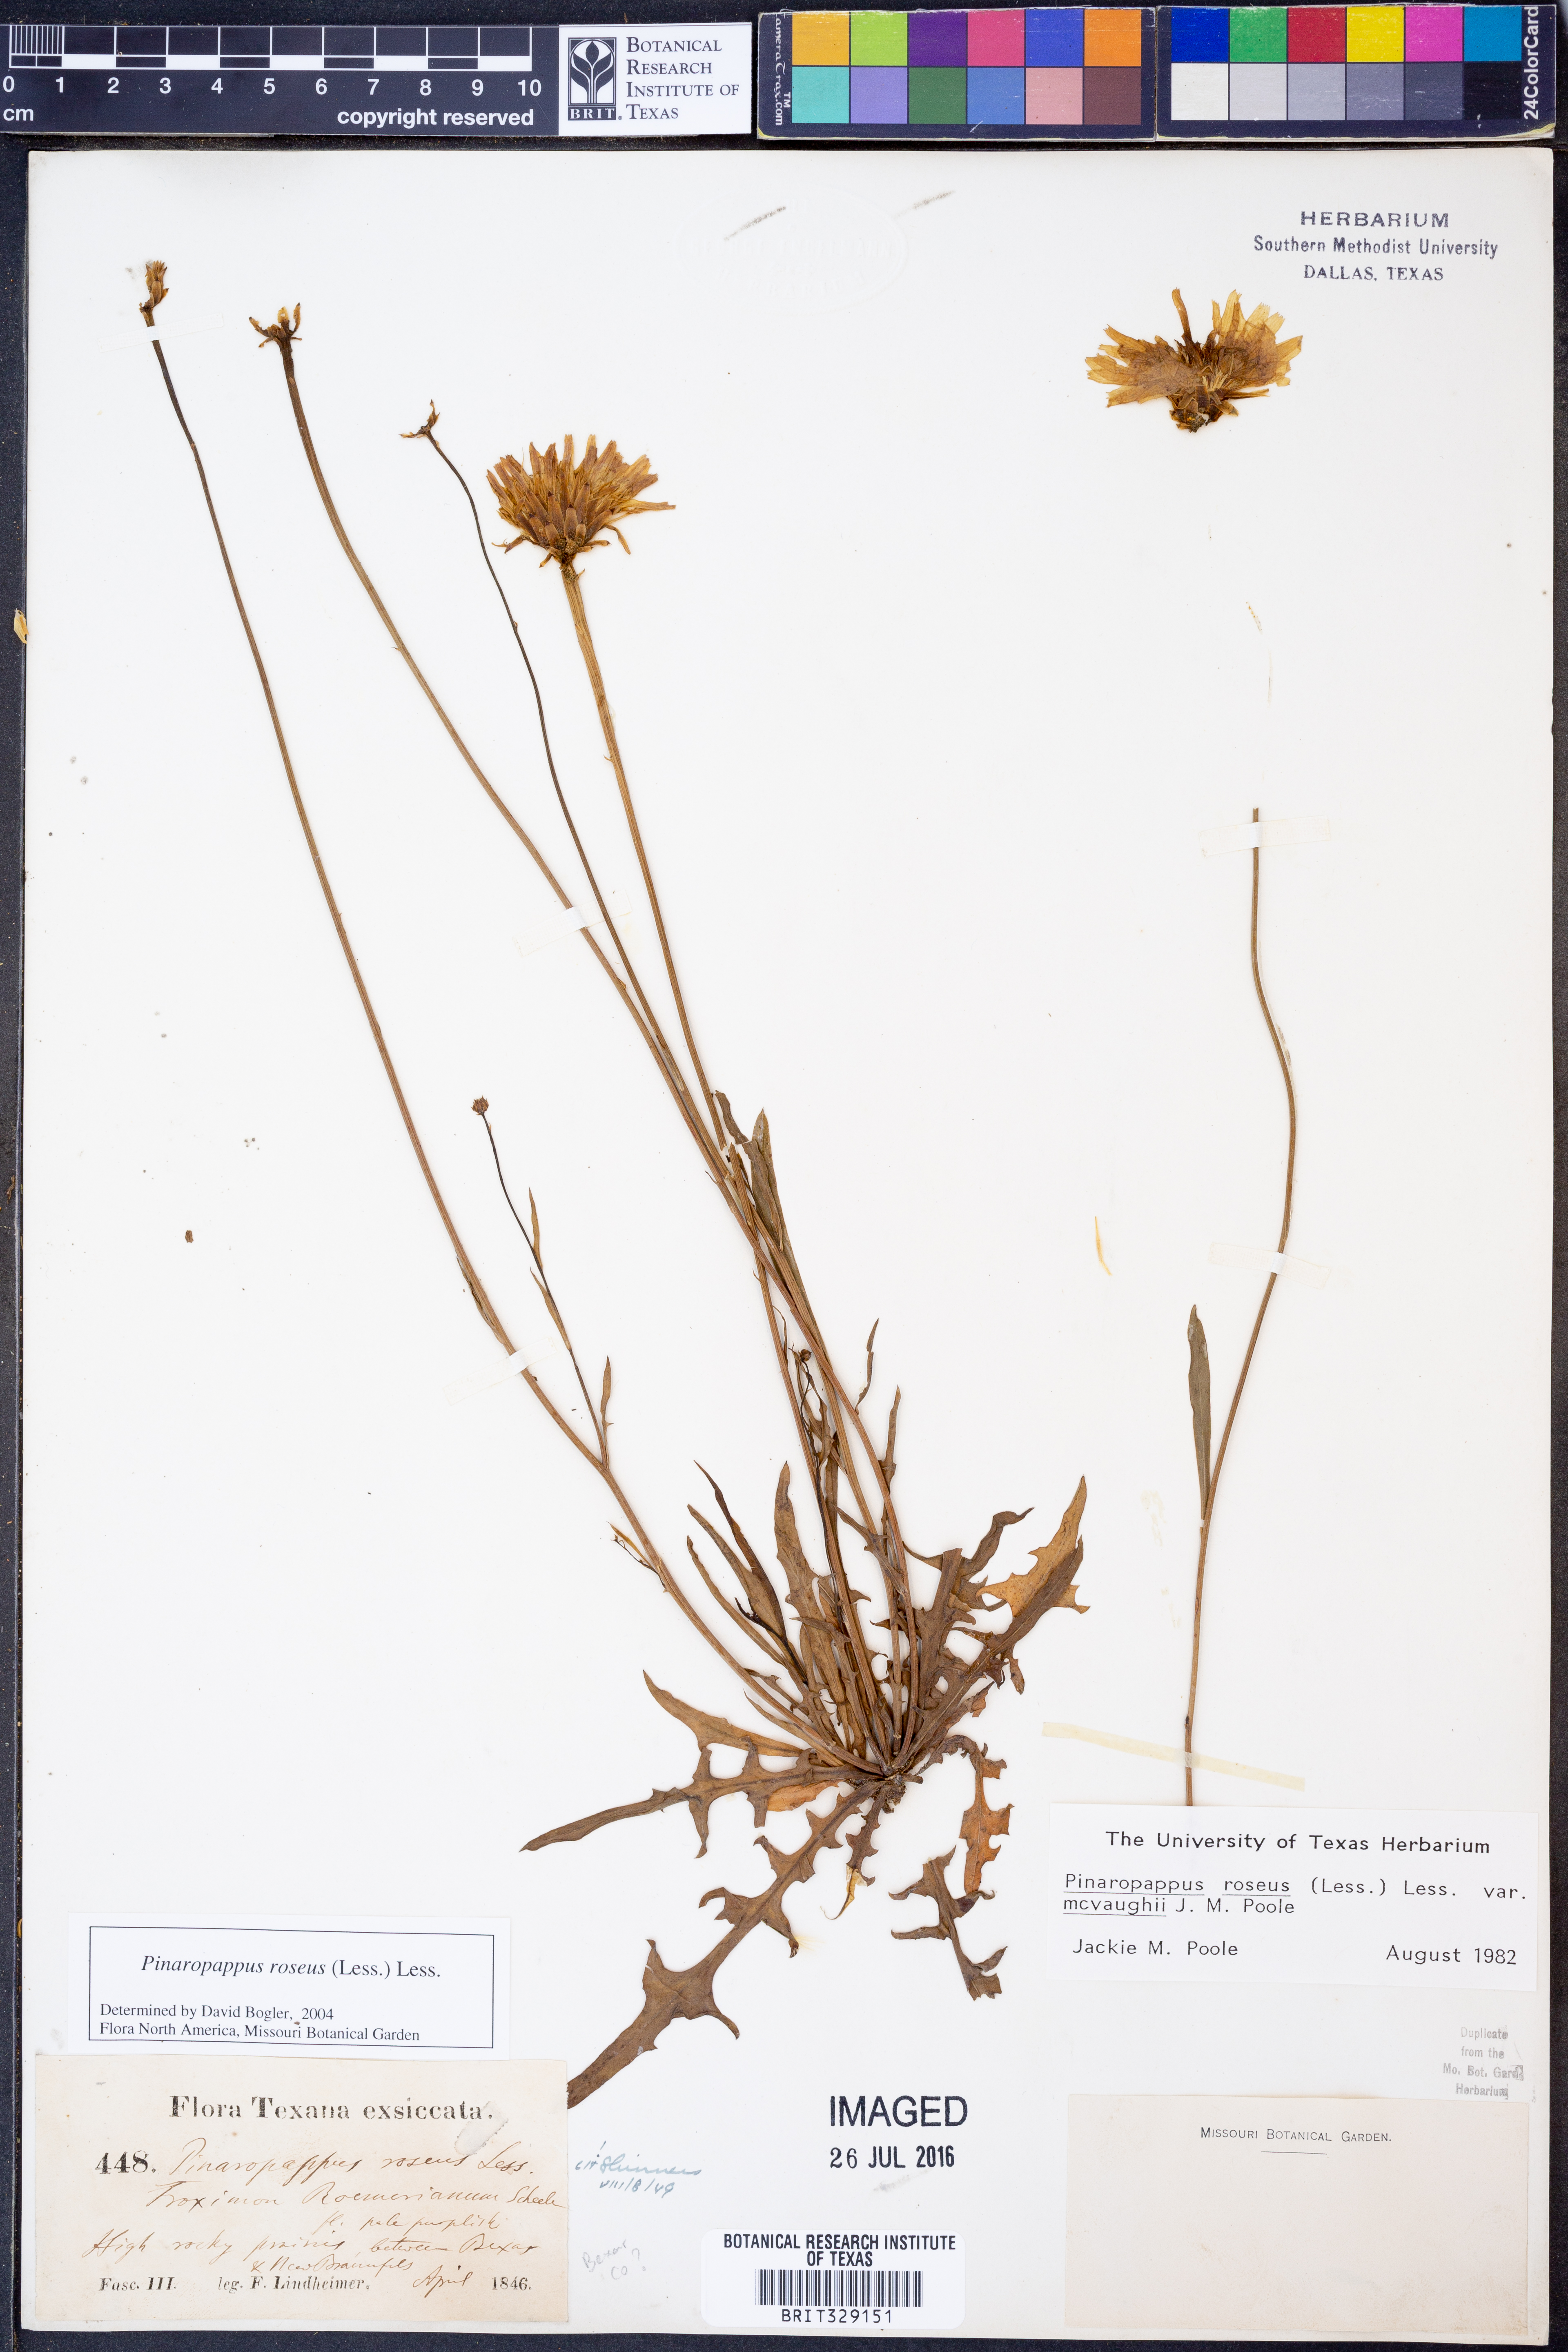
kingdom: Plantae
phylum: Tracheophyta
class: Magnoliopsida
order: Asterales
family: Asteraceae
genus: Pinaropappus
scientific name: Pinaropappus roseus
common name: Rock-lettuce
